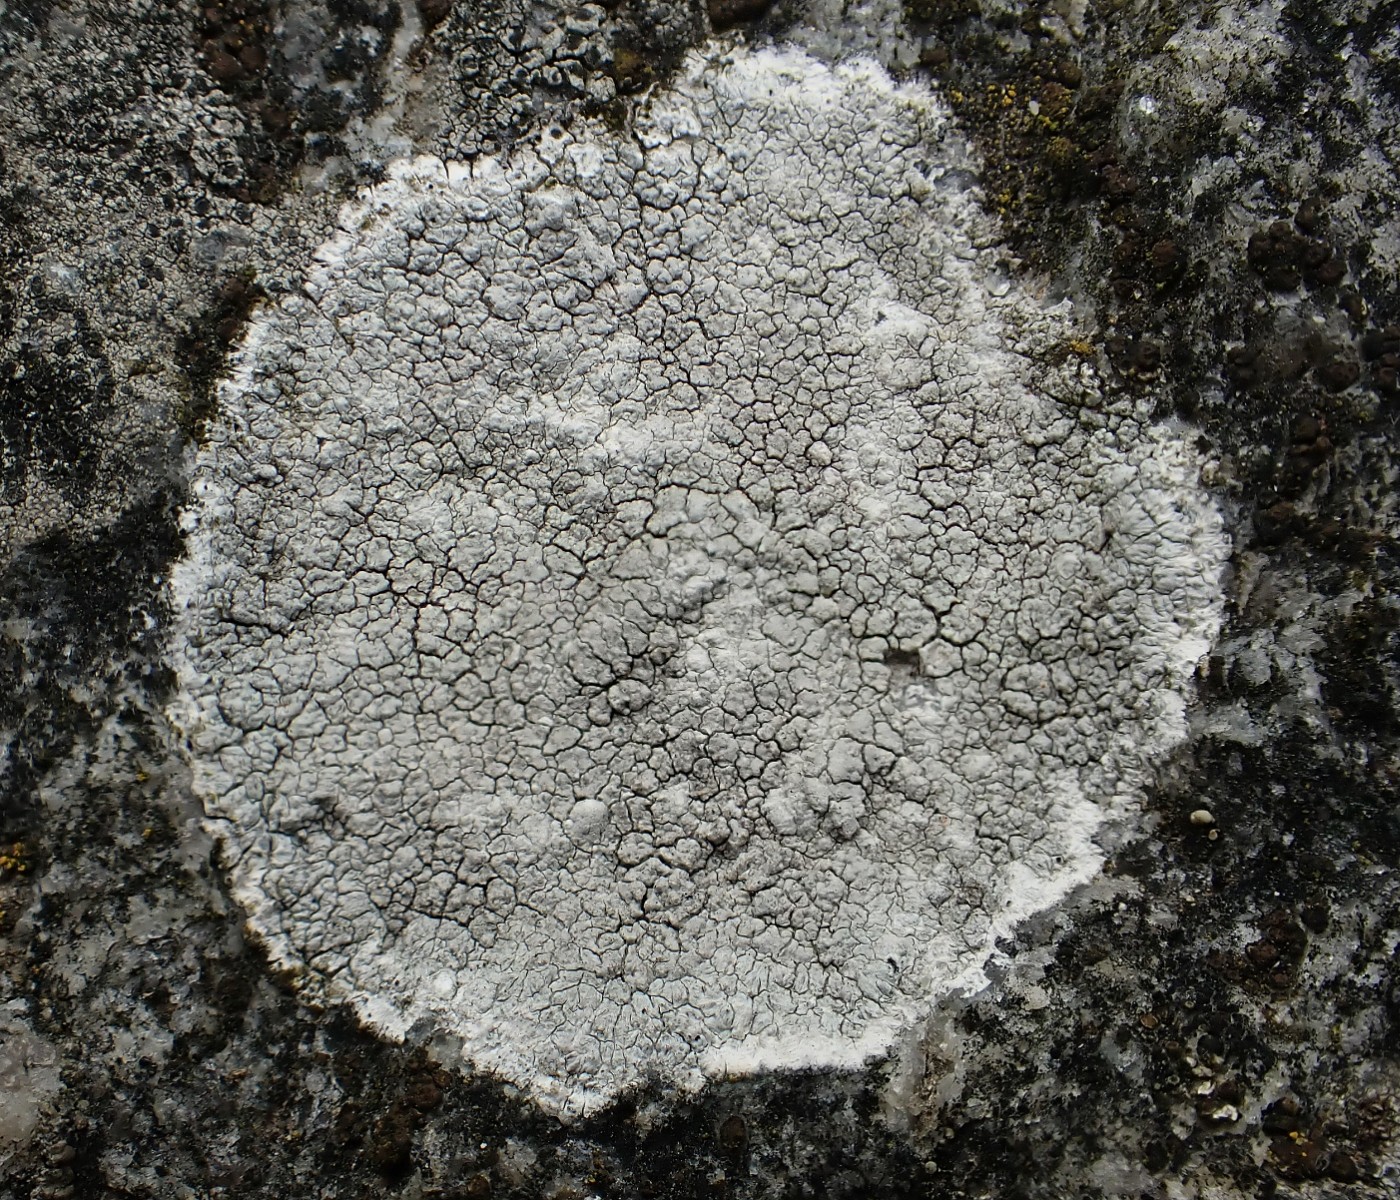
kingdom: Fungi
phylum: Ascomycota
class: Lecanoromycetes
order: Lecanorales
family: Lecanoraceae
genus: Glaucomaria
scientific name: Glaucomaria rupicola
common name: stengærde-kantskivelav
